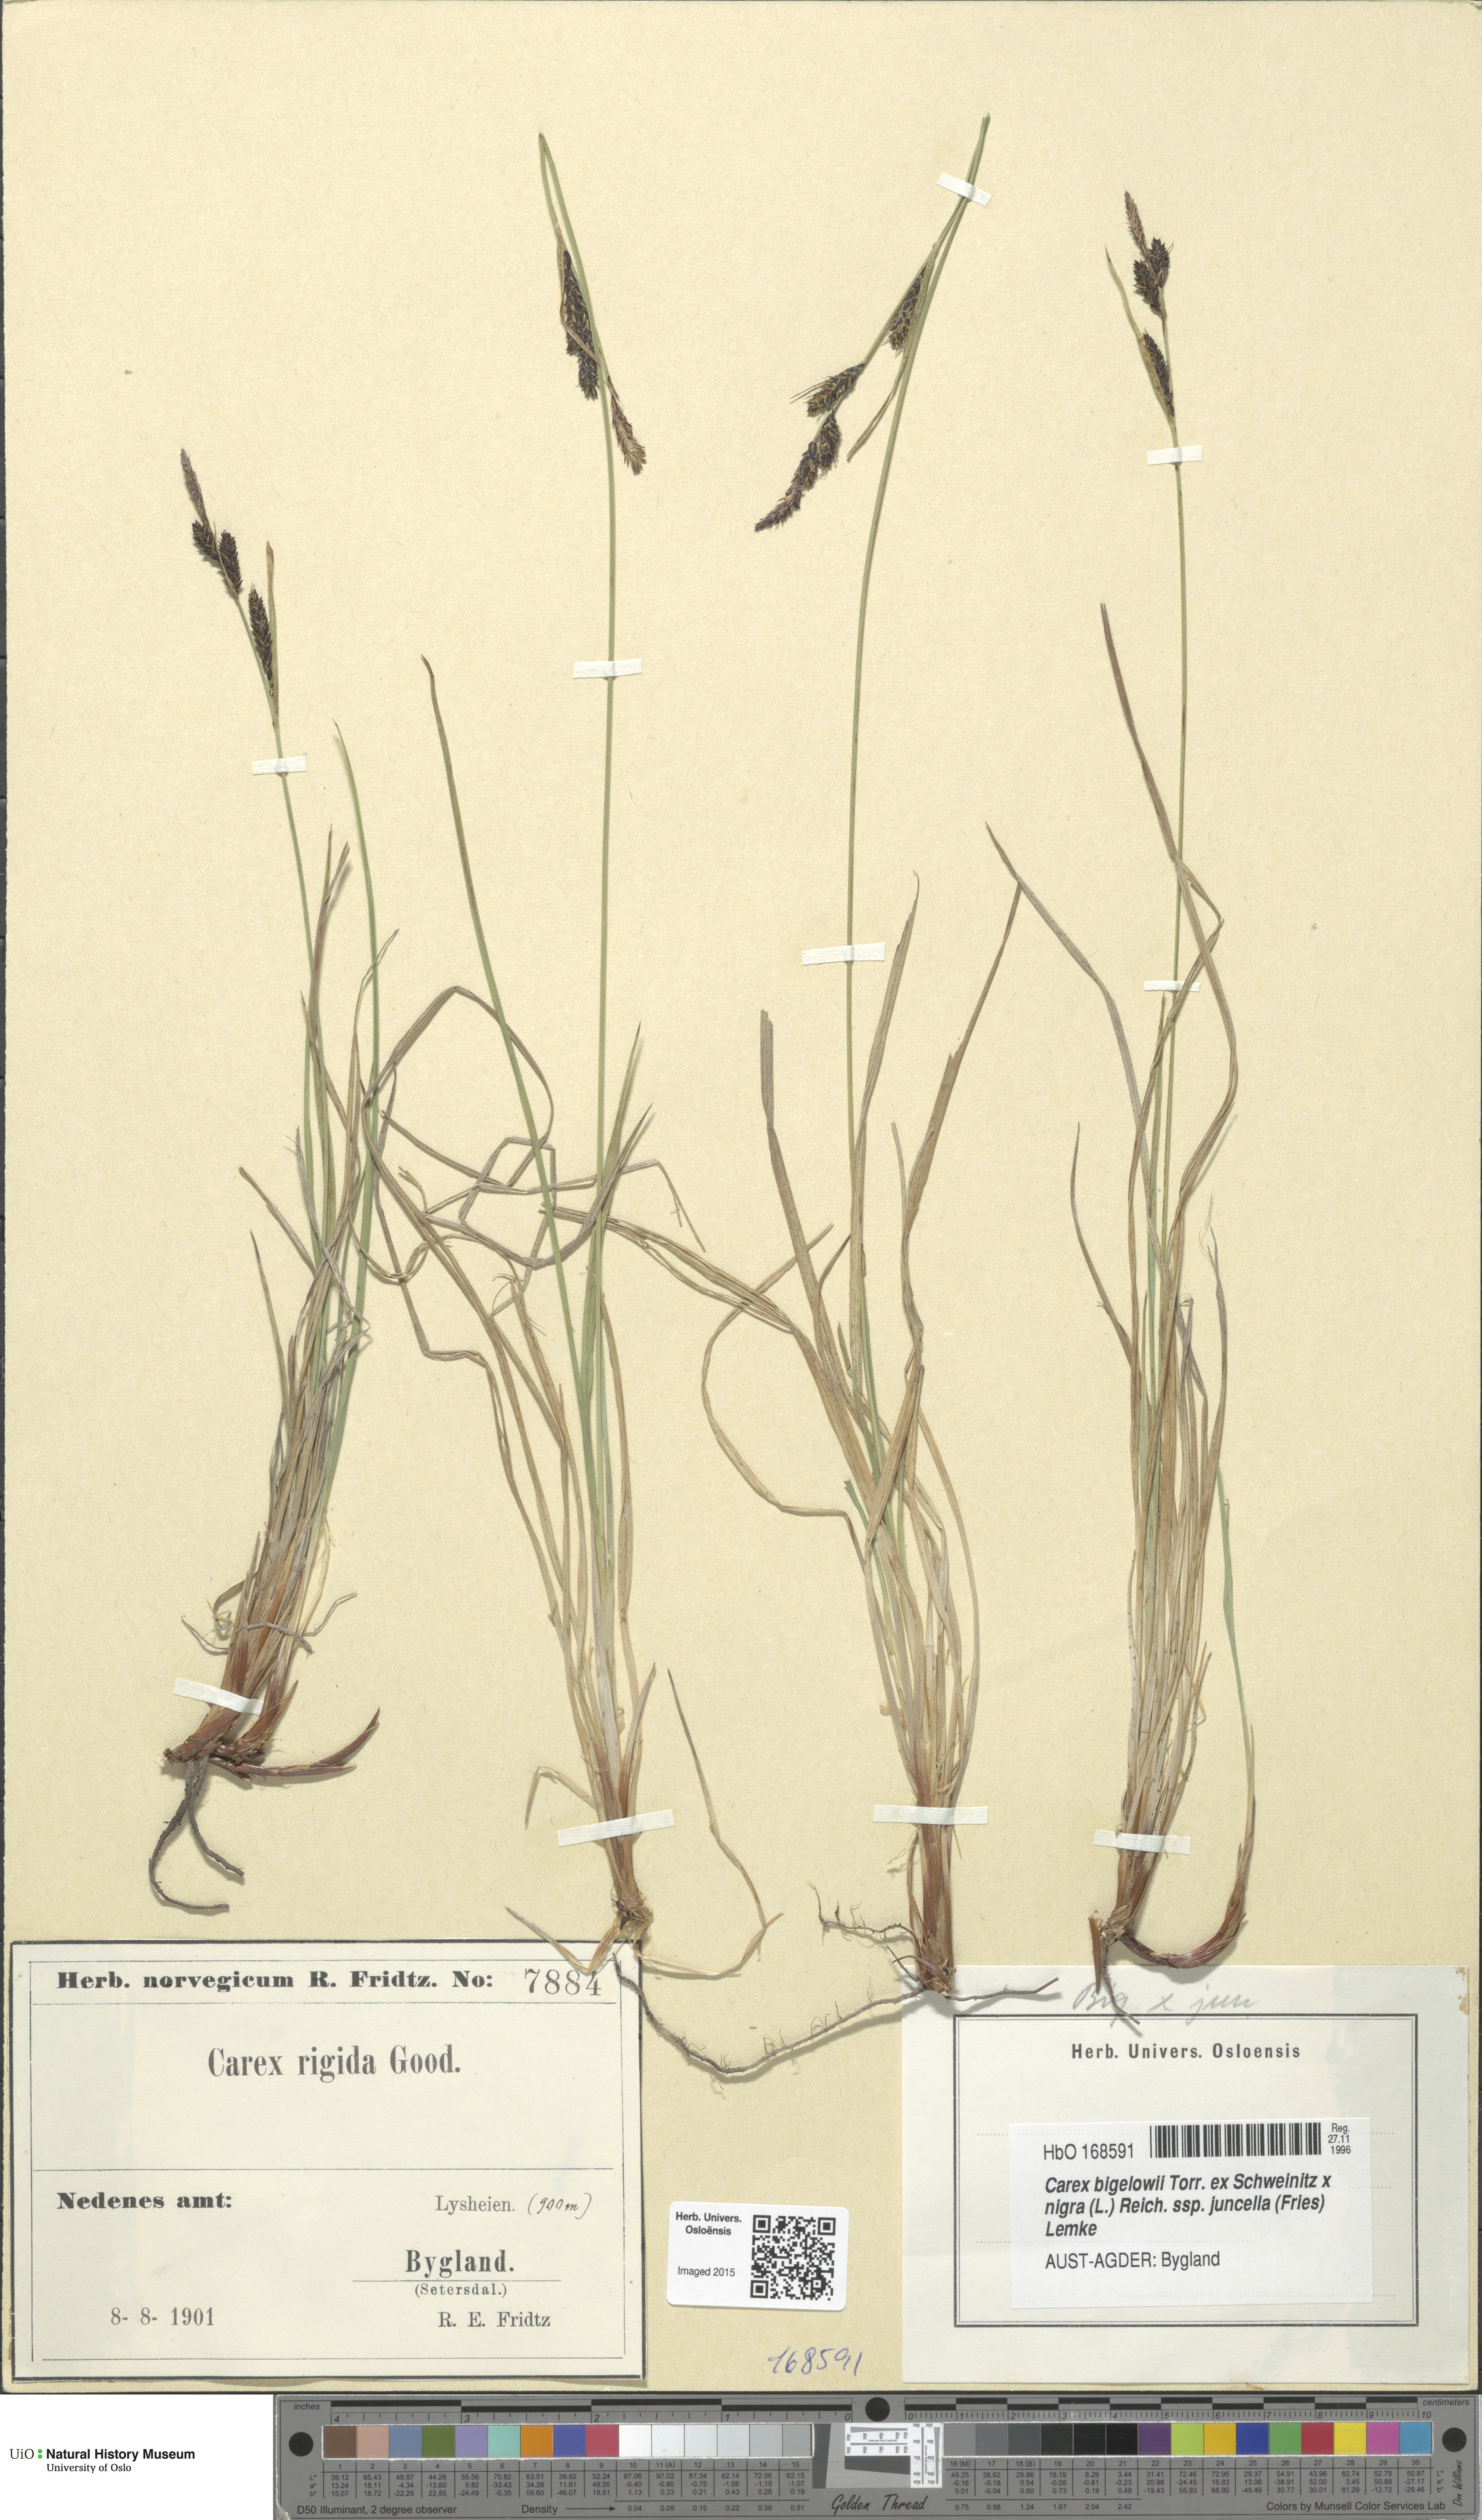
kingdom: Plantae
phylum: Tracheophyta
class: Liliopsida
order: Poales
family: Cyperaceae
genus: Carex
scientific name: Carex
